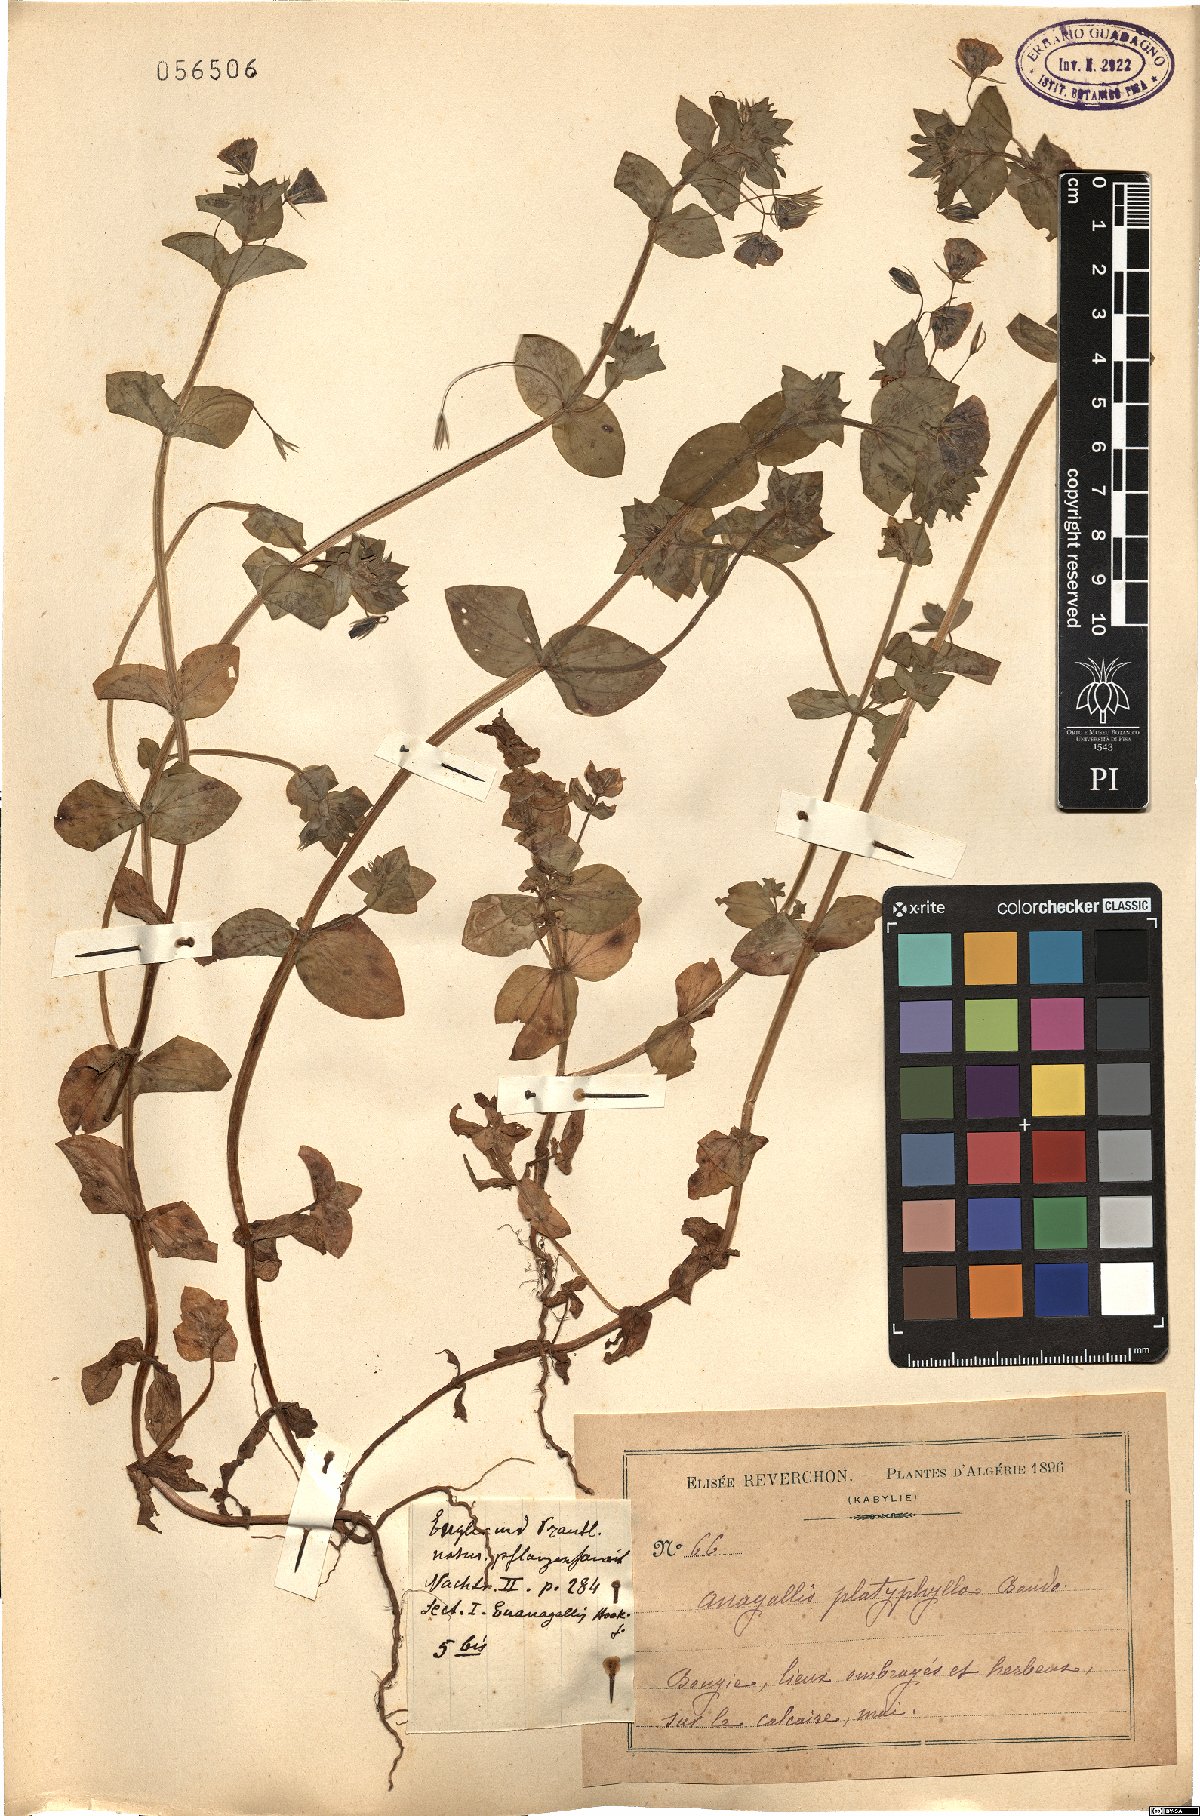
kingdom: Plantae
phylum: Tracheophyta
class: Magnoliopsida
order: Ericales
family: Primulaceae
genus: Lysimachia
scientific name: Lysimachia arvensis
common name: Scarlet pimpernel
